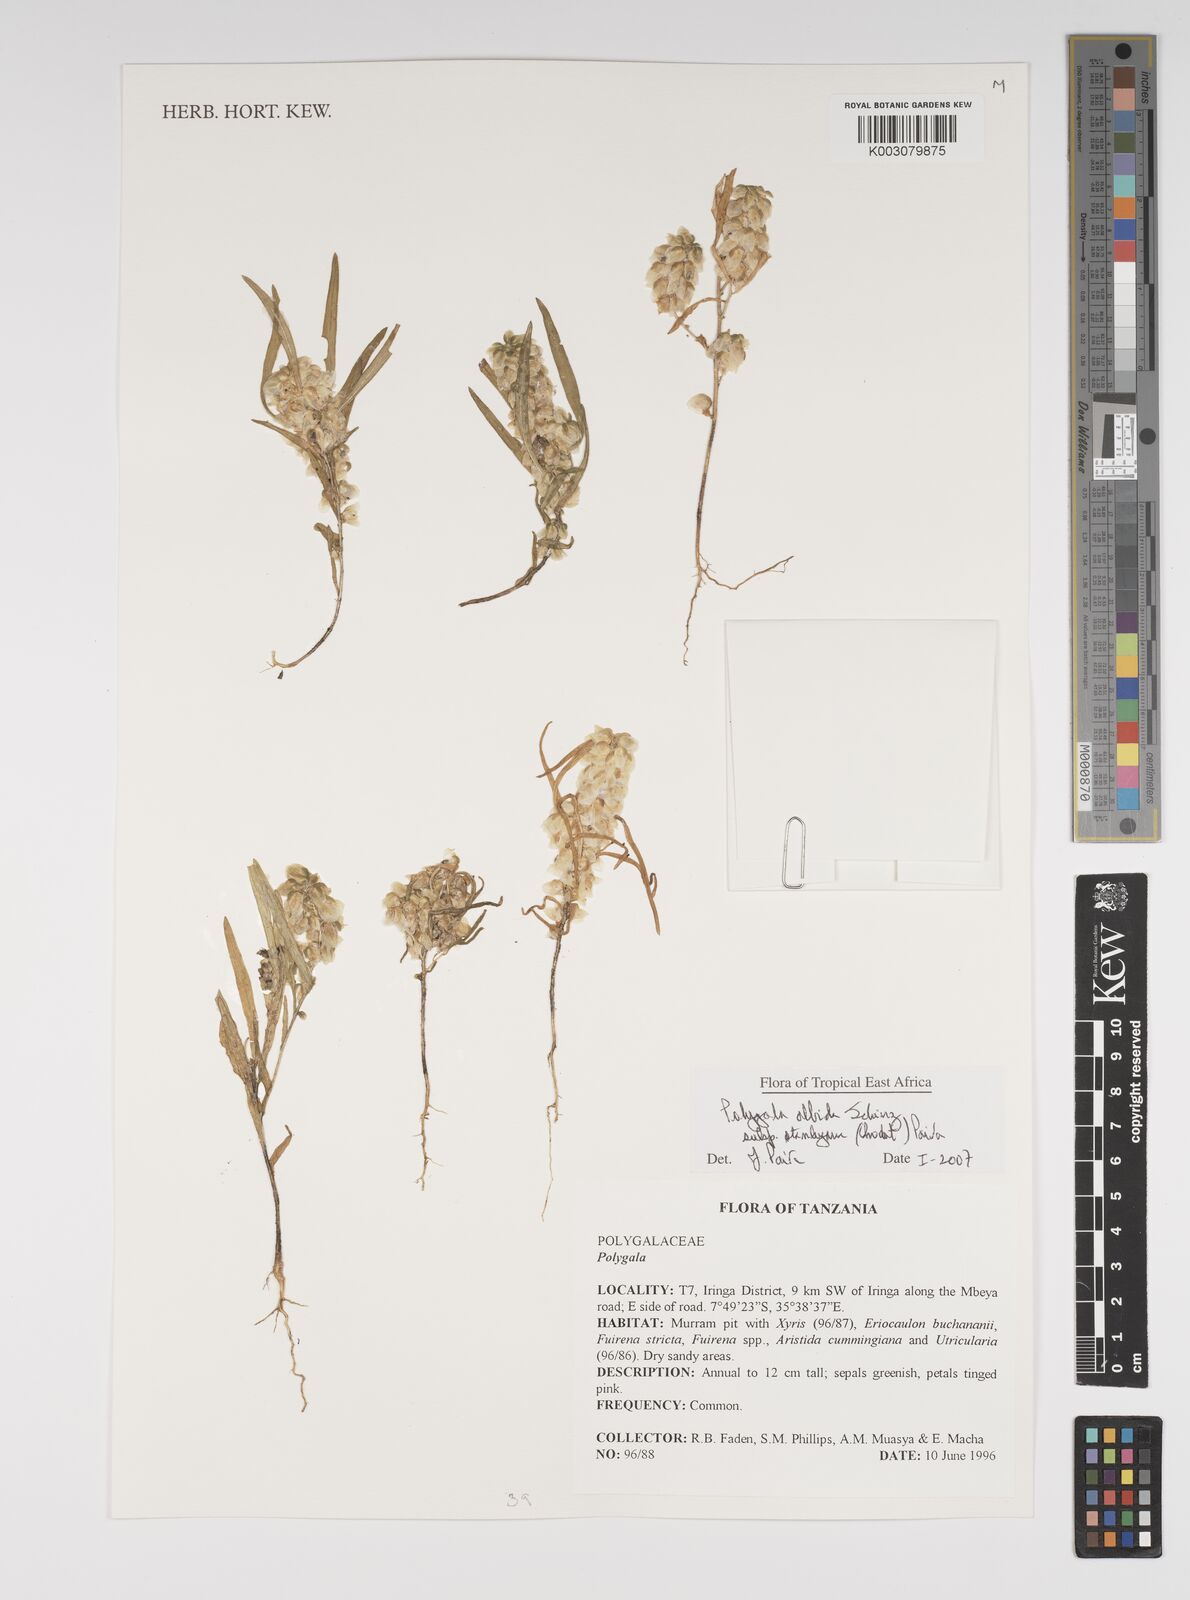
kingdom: Plantae
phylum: Tracheophyta
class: Magnoliopsida
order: Fabales
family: Polygalaceae
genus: Polygala
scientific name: Polygala albida
